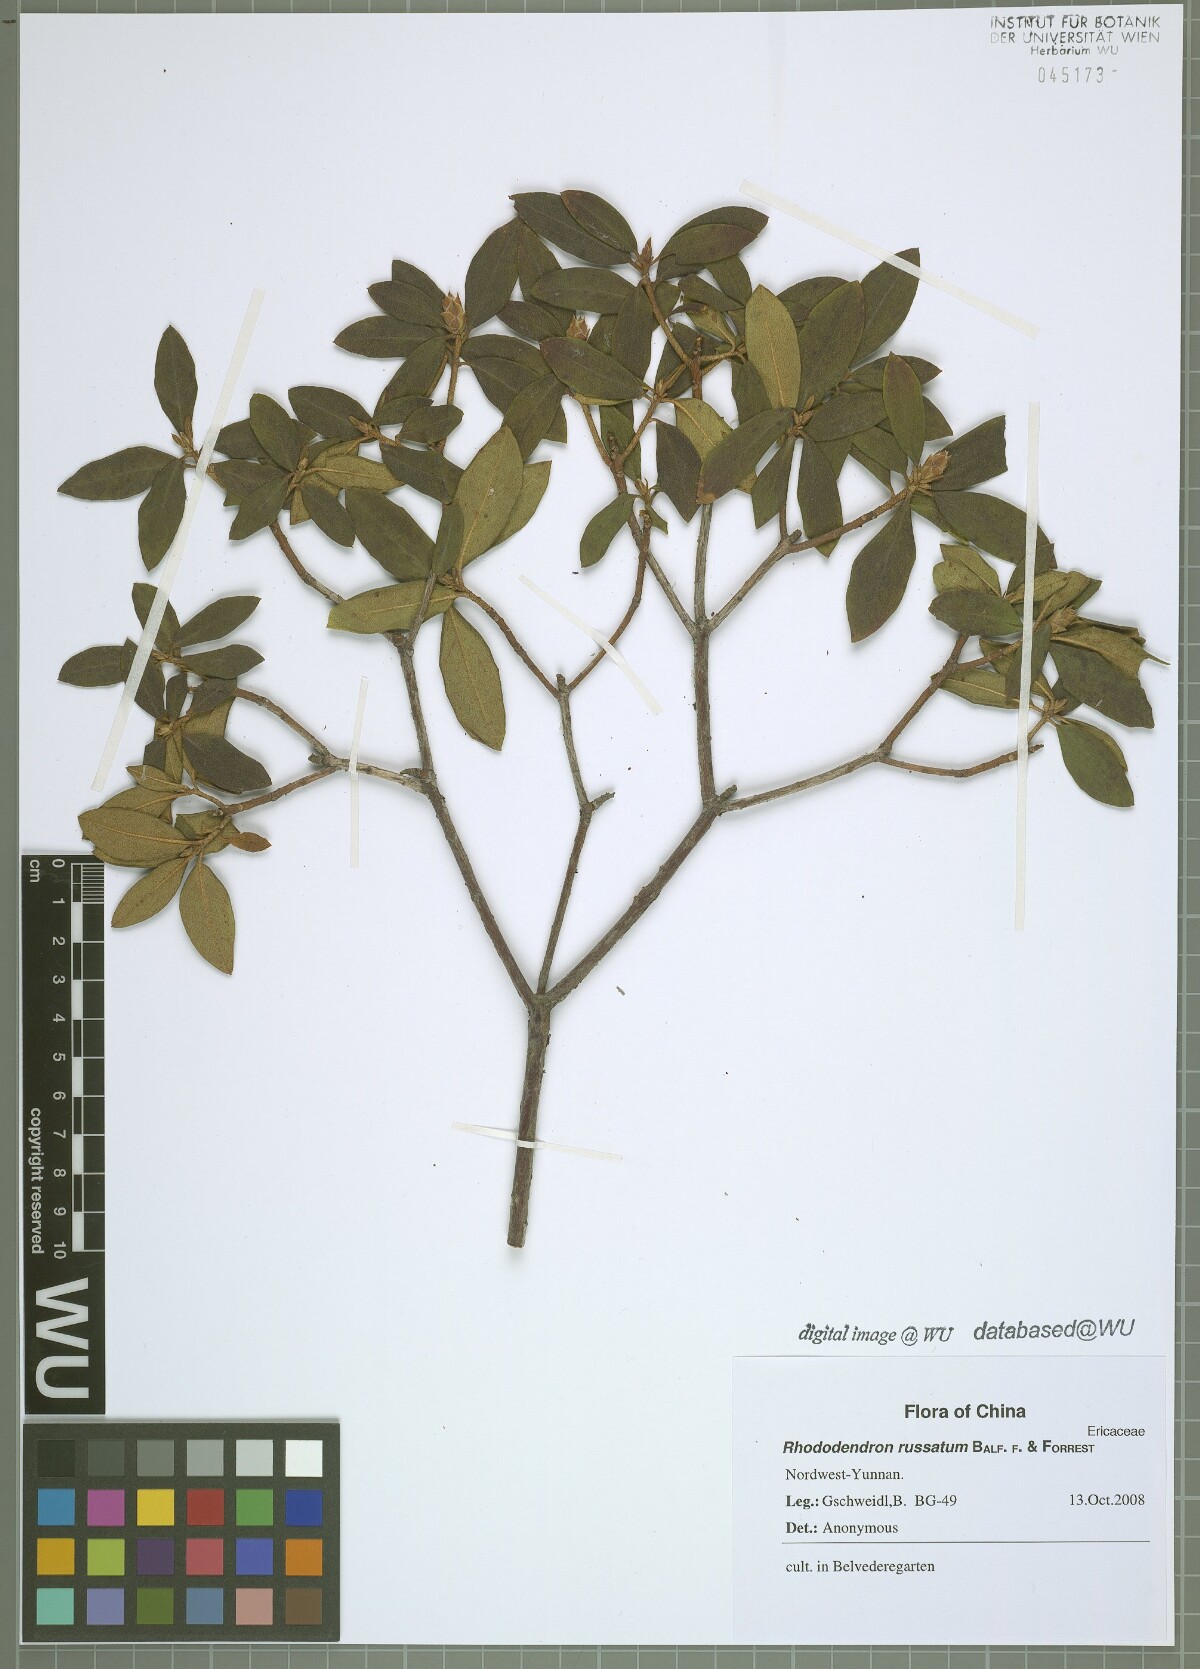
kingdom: Plantae
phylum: Tracheophyta
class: Magnoliopsida
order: Ericales
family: Ericaceae
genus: Rhododendron
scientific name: Rhododendron russatum
